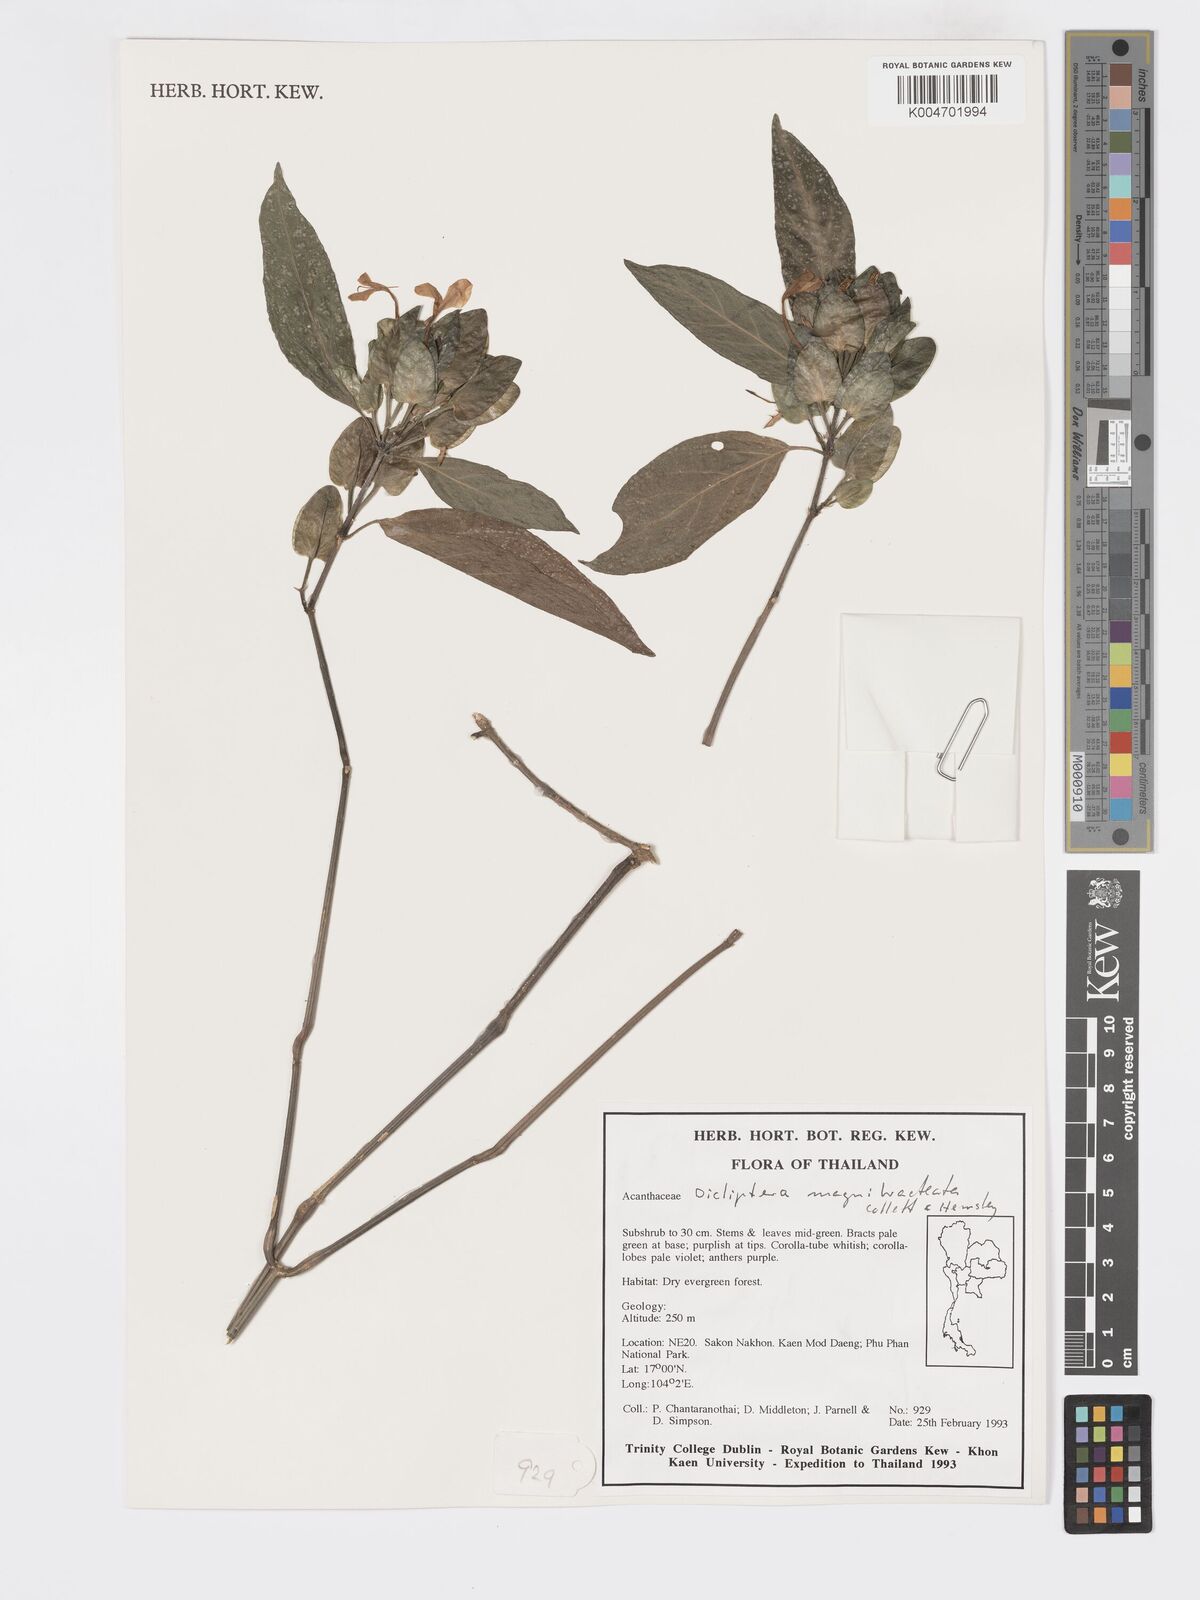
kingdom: Plantae
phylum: Tracheophyta
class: Magnoliopsida
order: Lamiales
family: Acanthaceae
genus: Dicliptera
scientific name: Dicliptera magnibracteata
